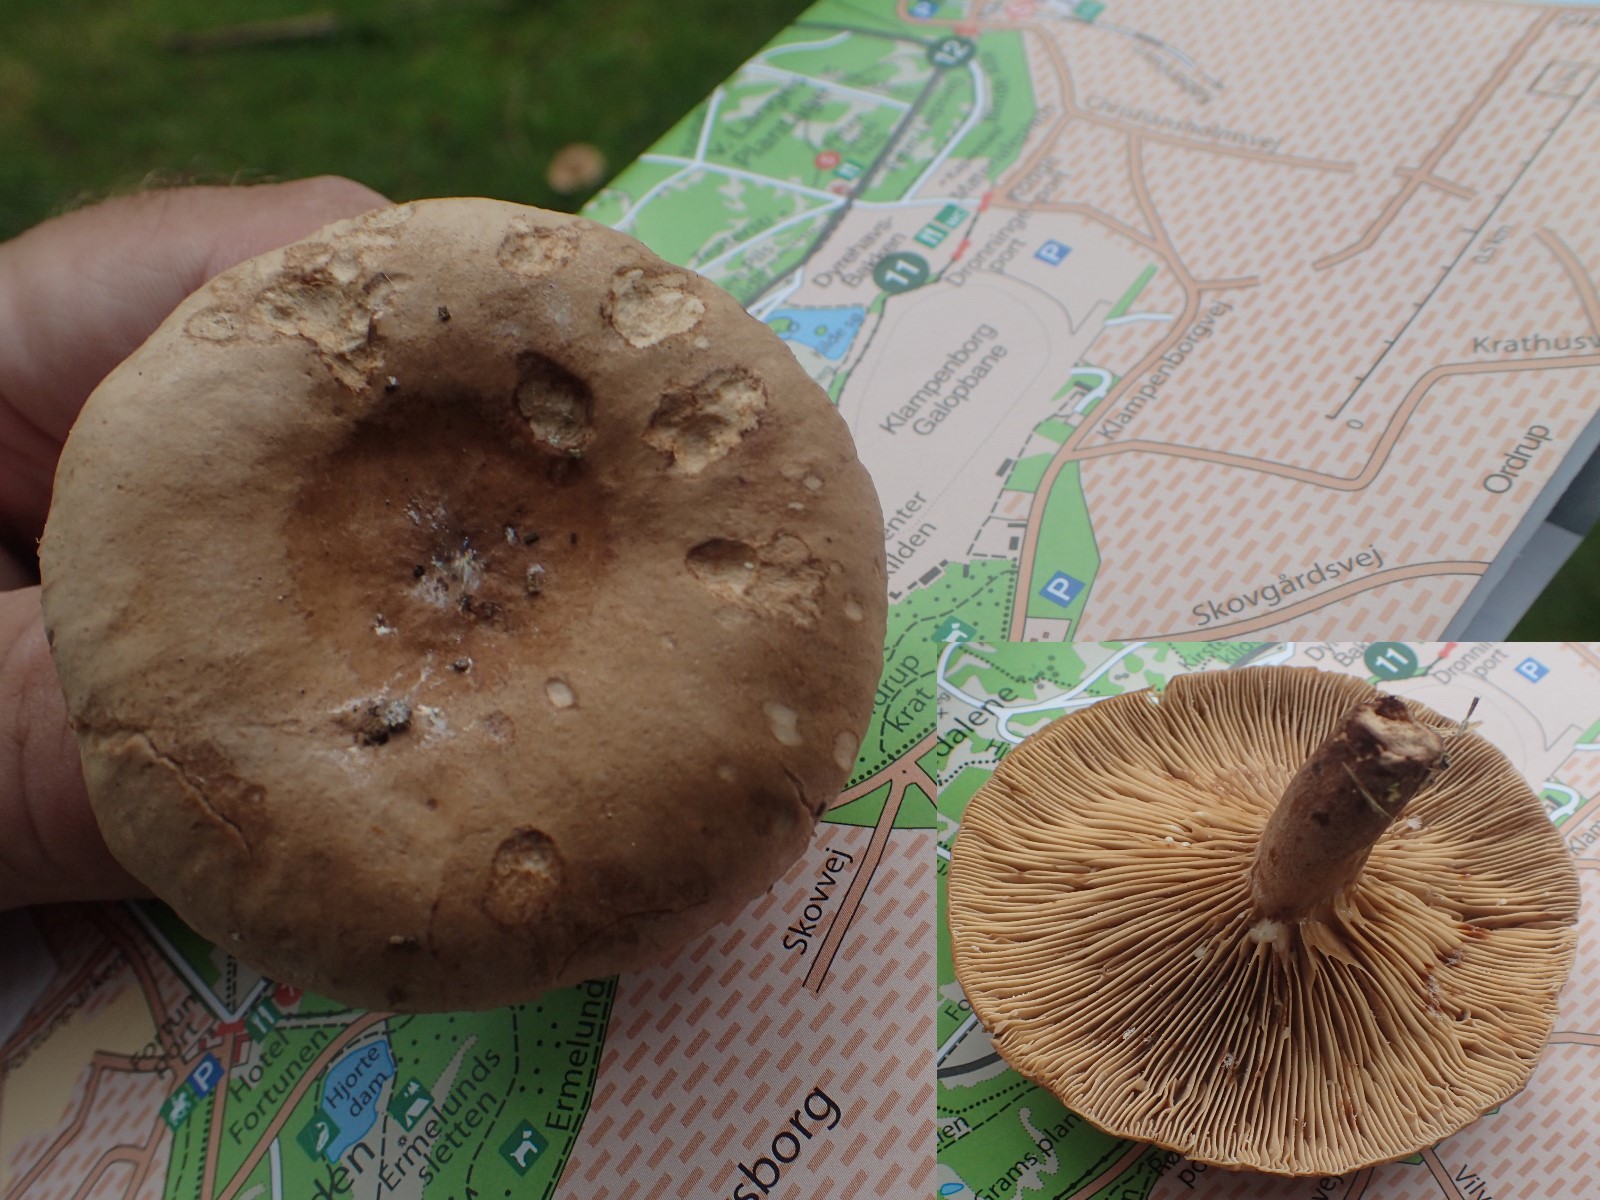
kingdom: Fungi
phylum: Basidiomycota
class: Agaricomycetes
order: Russulales
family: Russulaceae
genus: Lactarius
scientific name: Lactarius quietus
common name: ege-mælkehat
